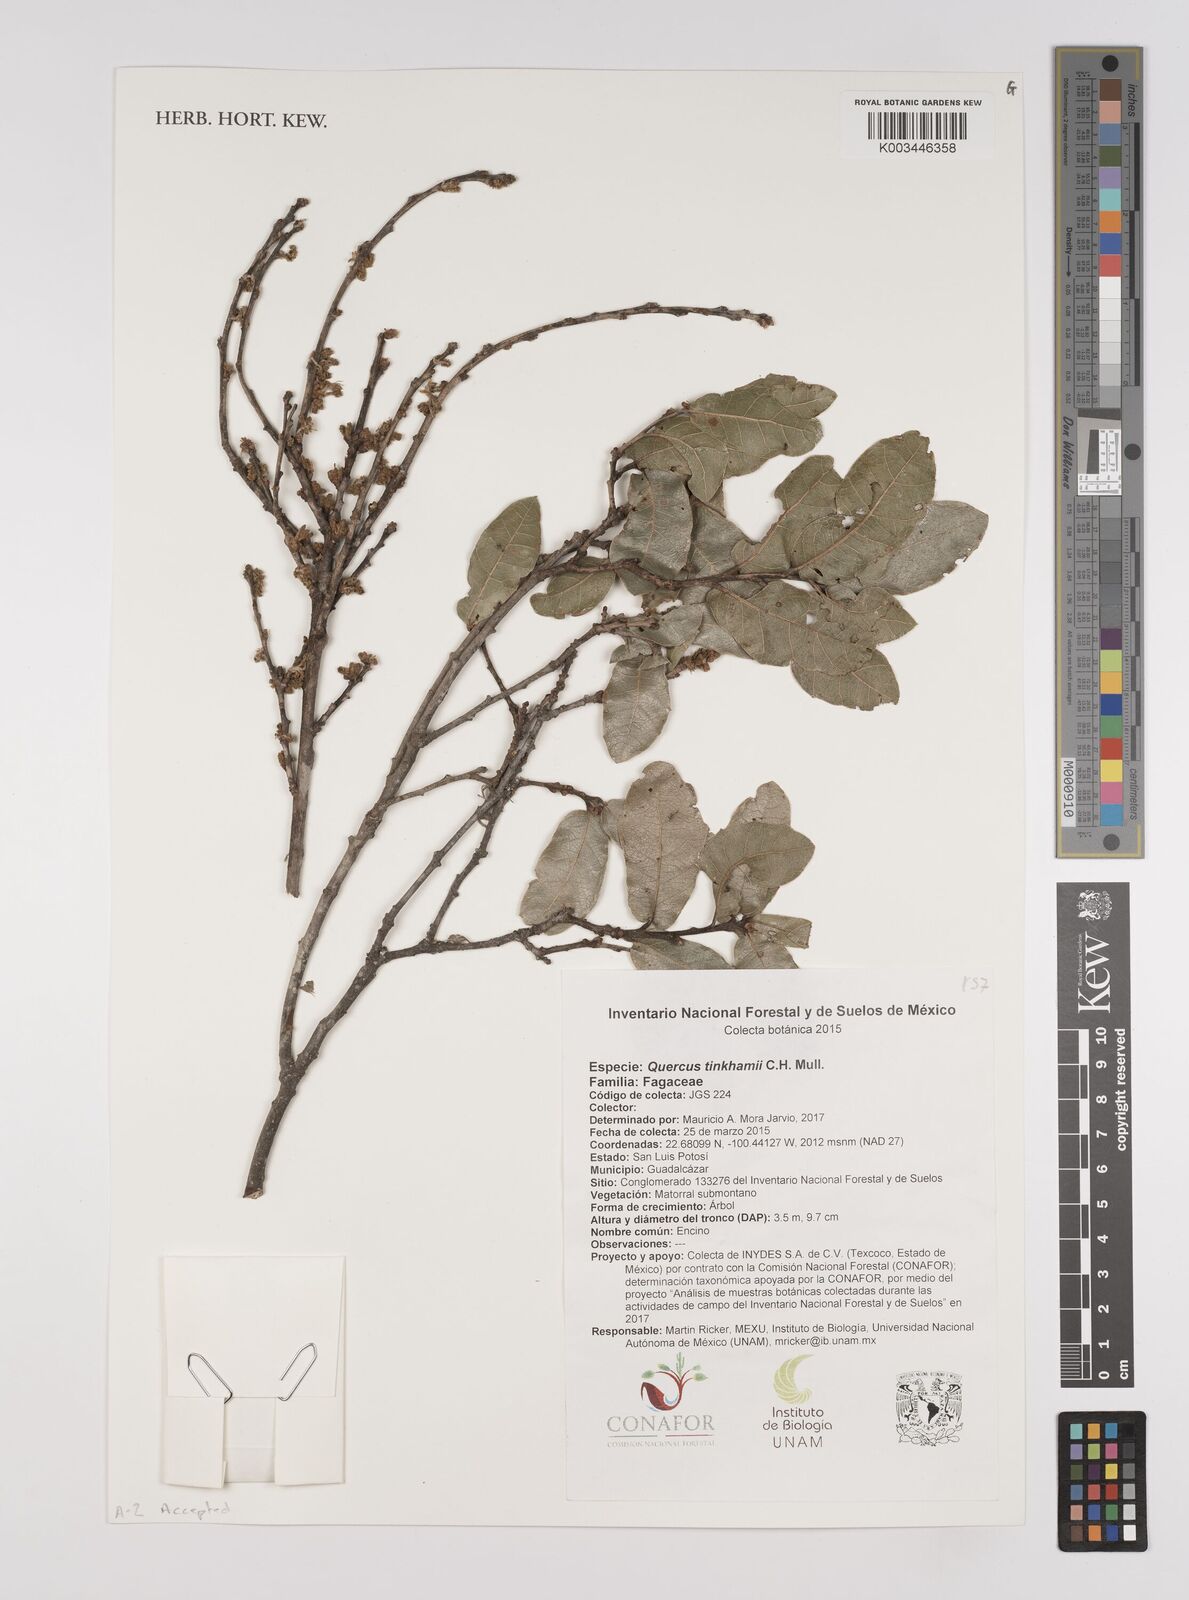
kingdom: Plantae
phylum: Tracheophyta
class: Magnoliopsida
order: Fagales
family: Fagaceae
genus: Quercus
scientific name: Quercus tinkhamii
